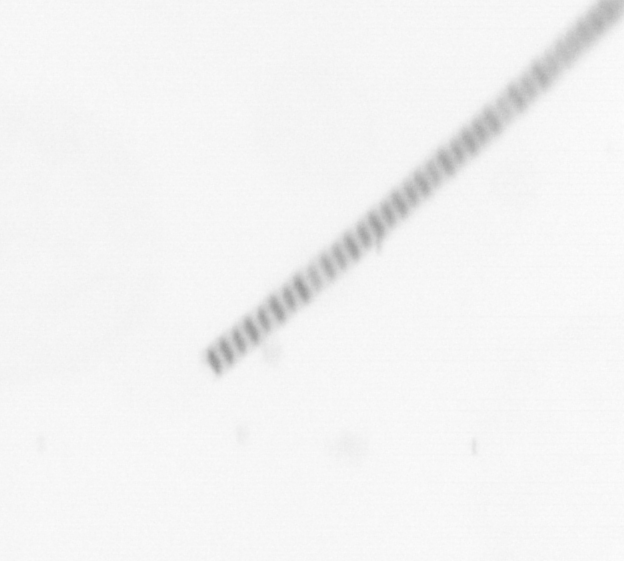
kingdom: Chromista
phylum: Ochrophyta
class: Bacillariophyceae
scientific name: Bacillariophyceae
